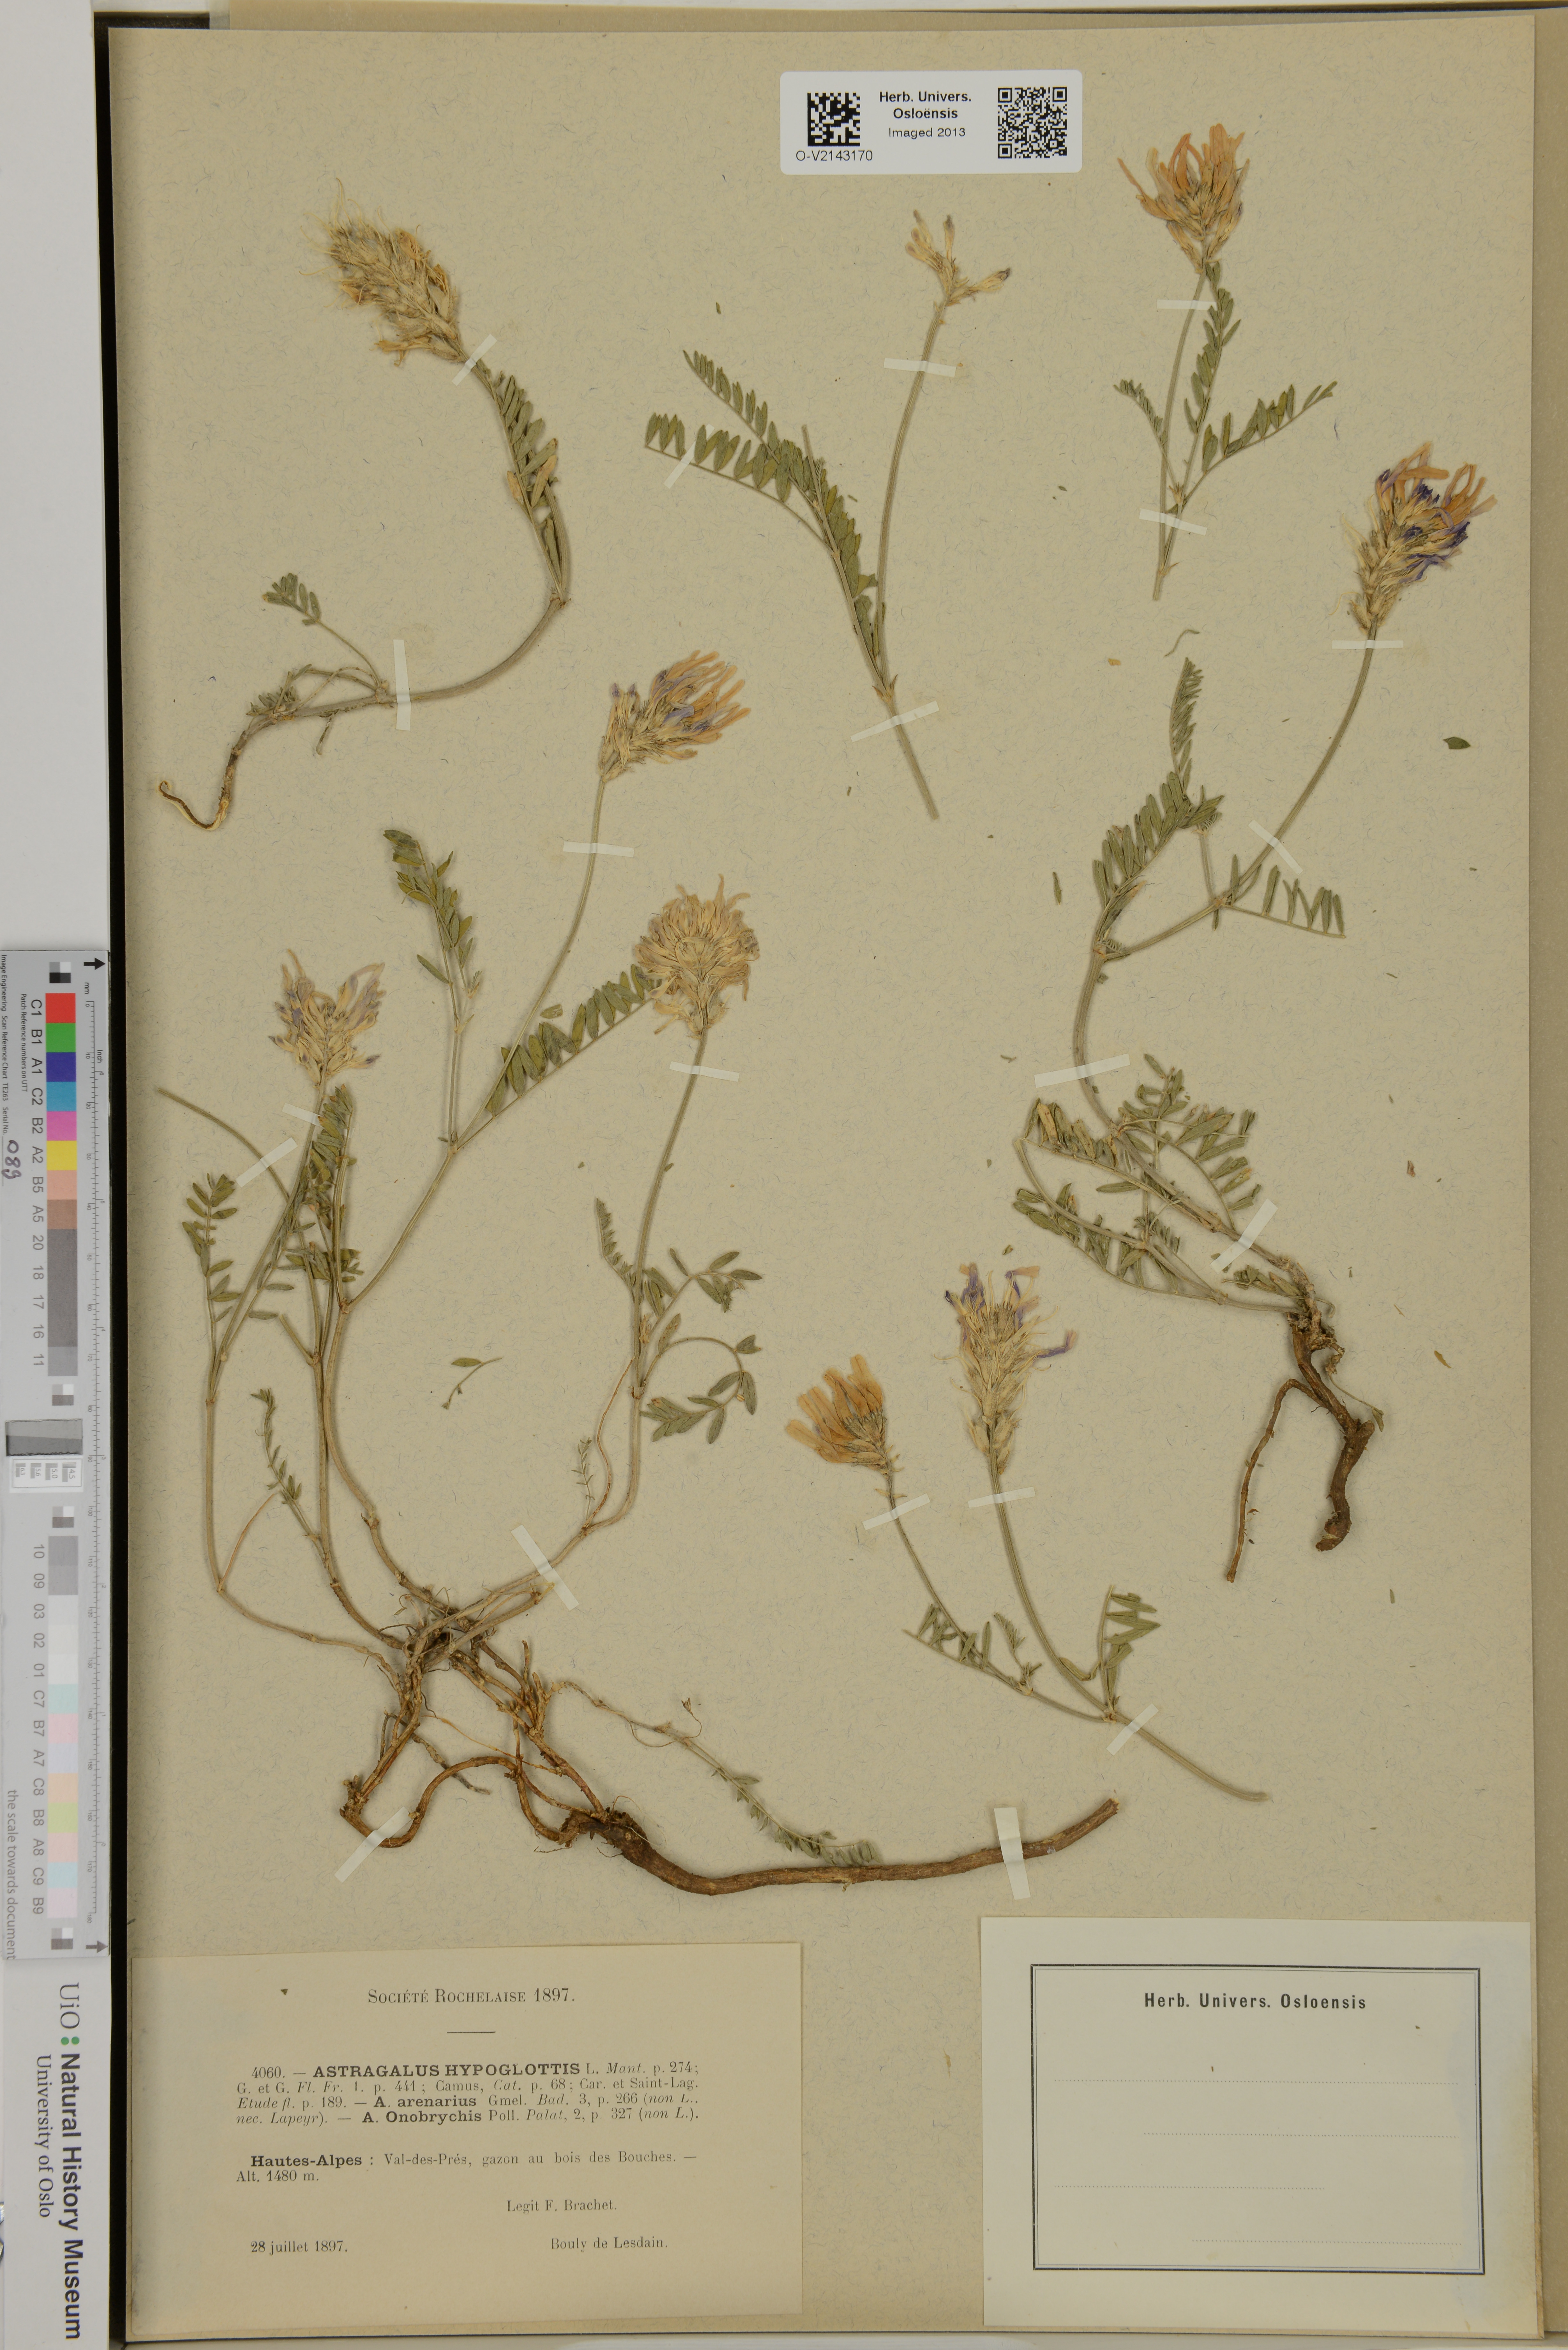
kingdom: Plantae
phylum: Tracheophyta
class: Magnoliopsida
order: Fabales
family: Fabaceae
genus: Astragalus
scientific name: Astragalus danicus
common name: Purple milk-vetch
